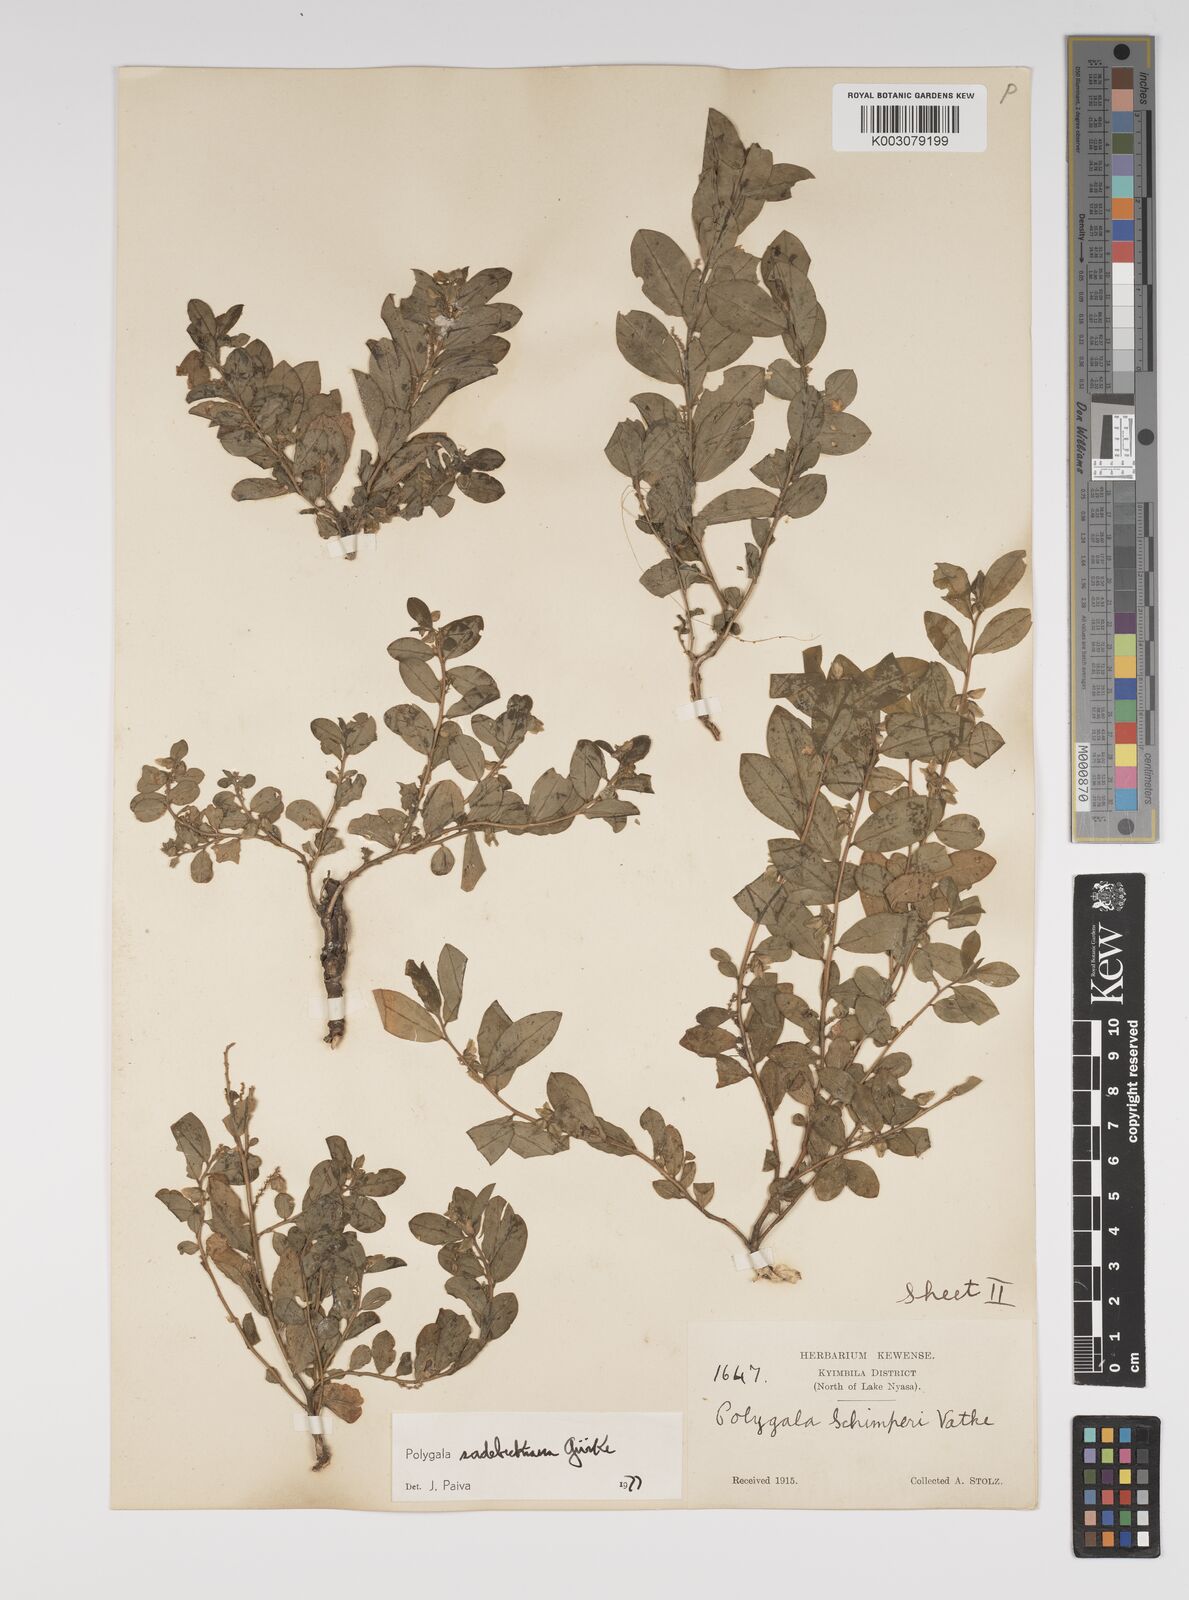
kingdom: Plantae
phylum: Tracheophyta
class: Magnoliopsida
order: Fabales
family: Polygalaceae
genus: Polygala
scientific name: Polygala sadebeckiana
